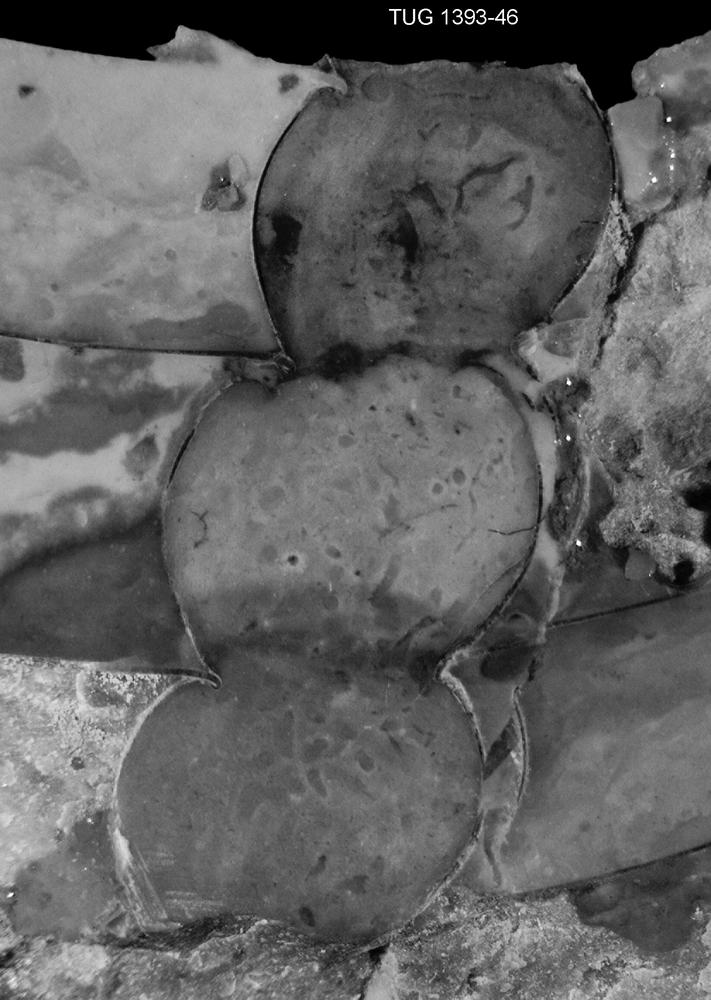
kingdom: Animalia
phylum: Mollusca
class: Cephalopoda
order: Nautilida
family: Nautilidae
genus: Orthonybyoceras
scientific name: Orthonybyoceras Orthoceras dyeri
